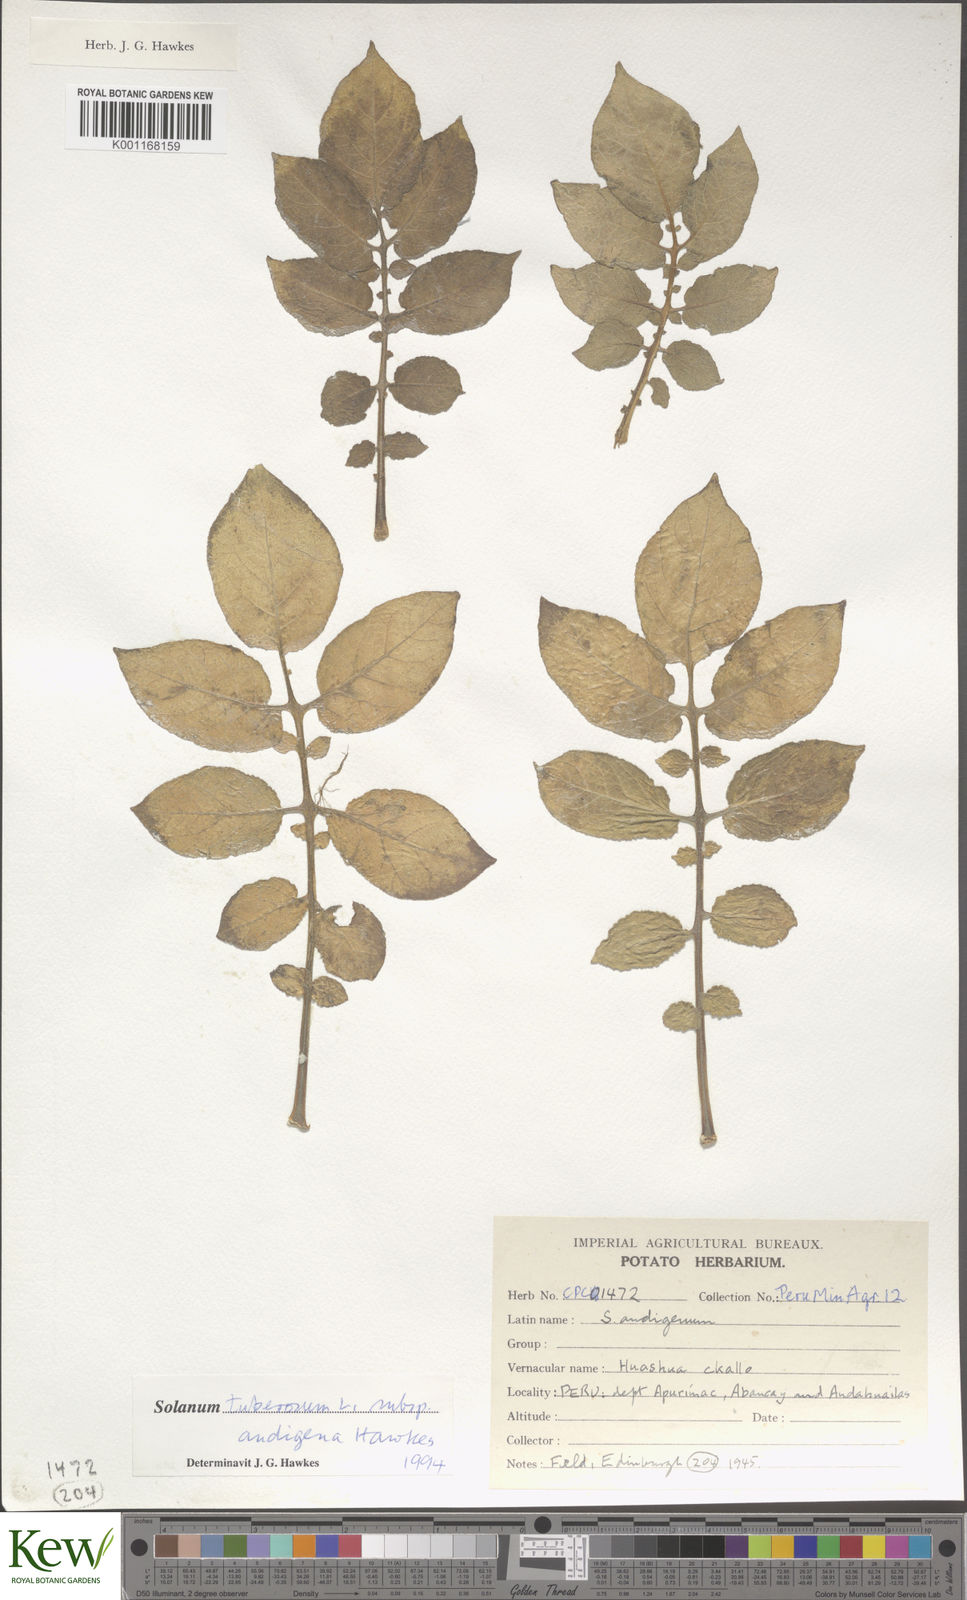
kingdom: Plantae
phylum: Tracheophyta
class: Magnoliopsida
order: Solanales
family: Solanaceae
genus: Solanum
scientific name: Solanum tuberosum
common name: Potato
